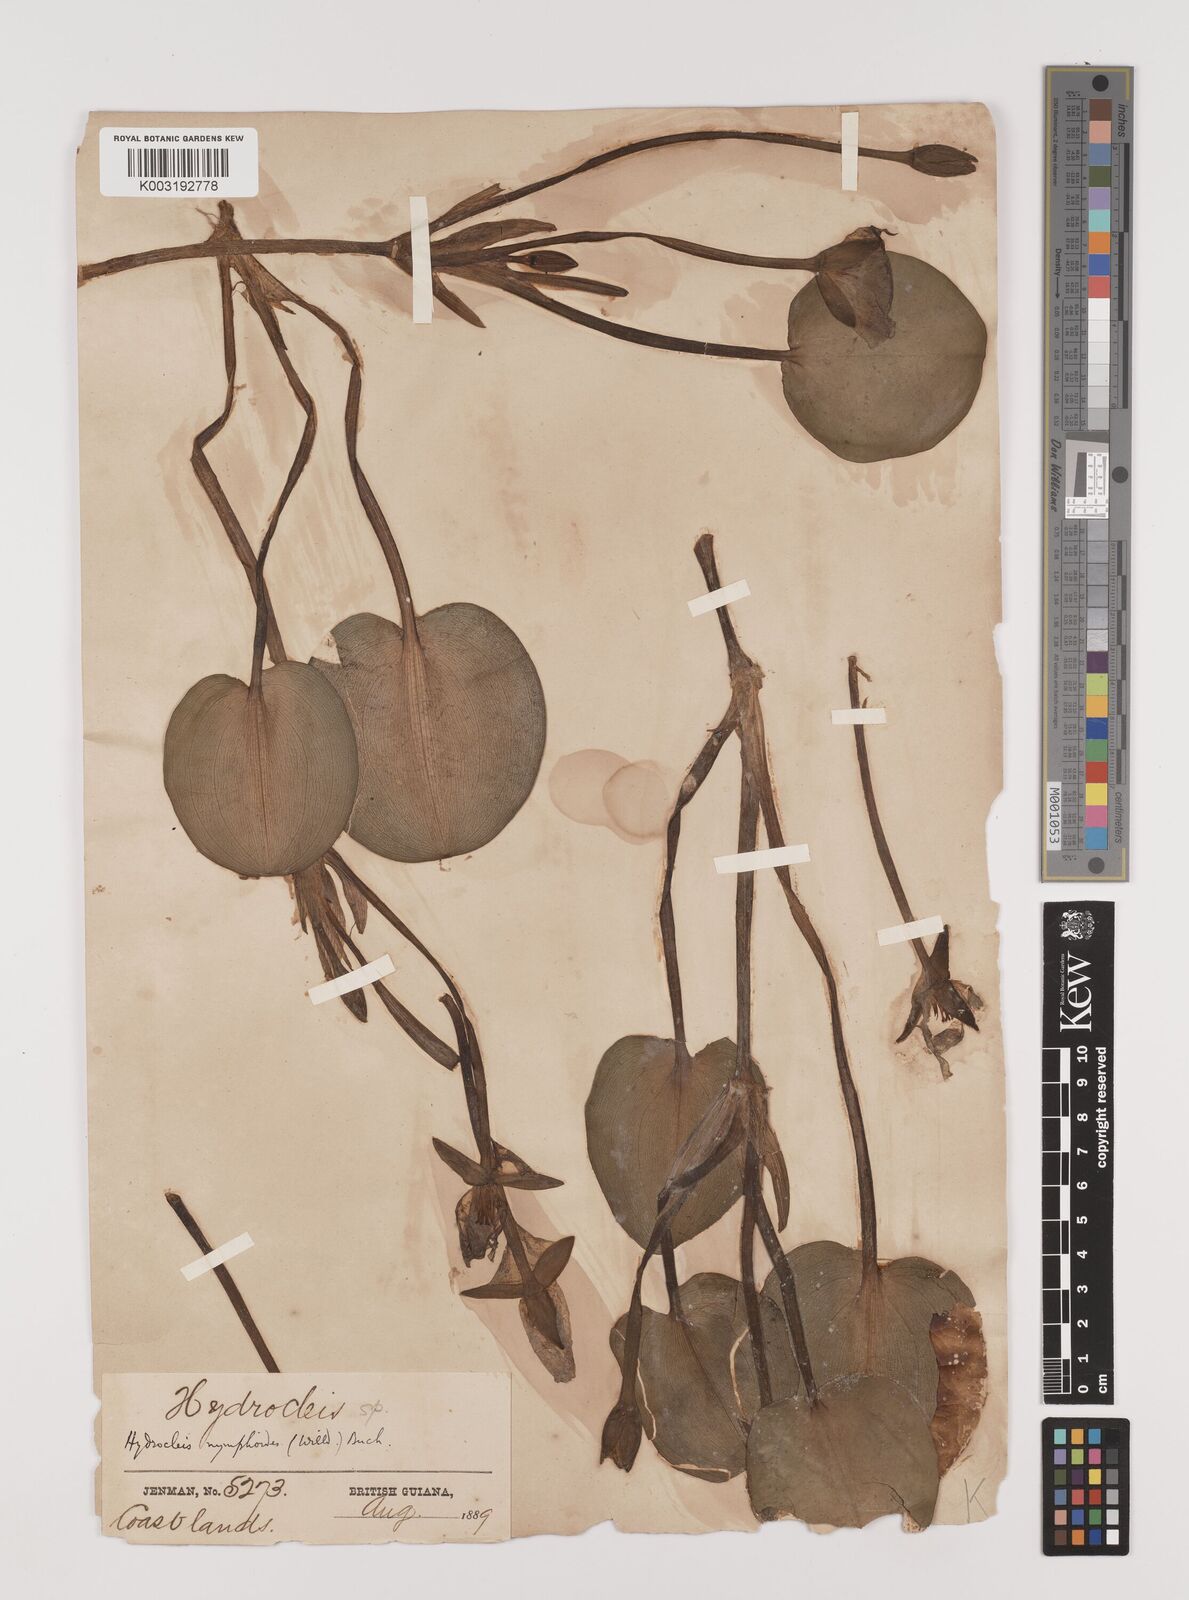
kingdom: Plantae
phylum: Tracheophyta
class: Liliopsida
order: Alismatales
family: Alismataceae
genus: Hydrocleys
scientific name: Hydrocleys nymphoides
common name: Water-poppy
